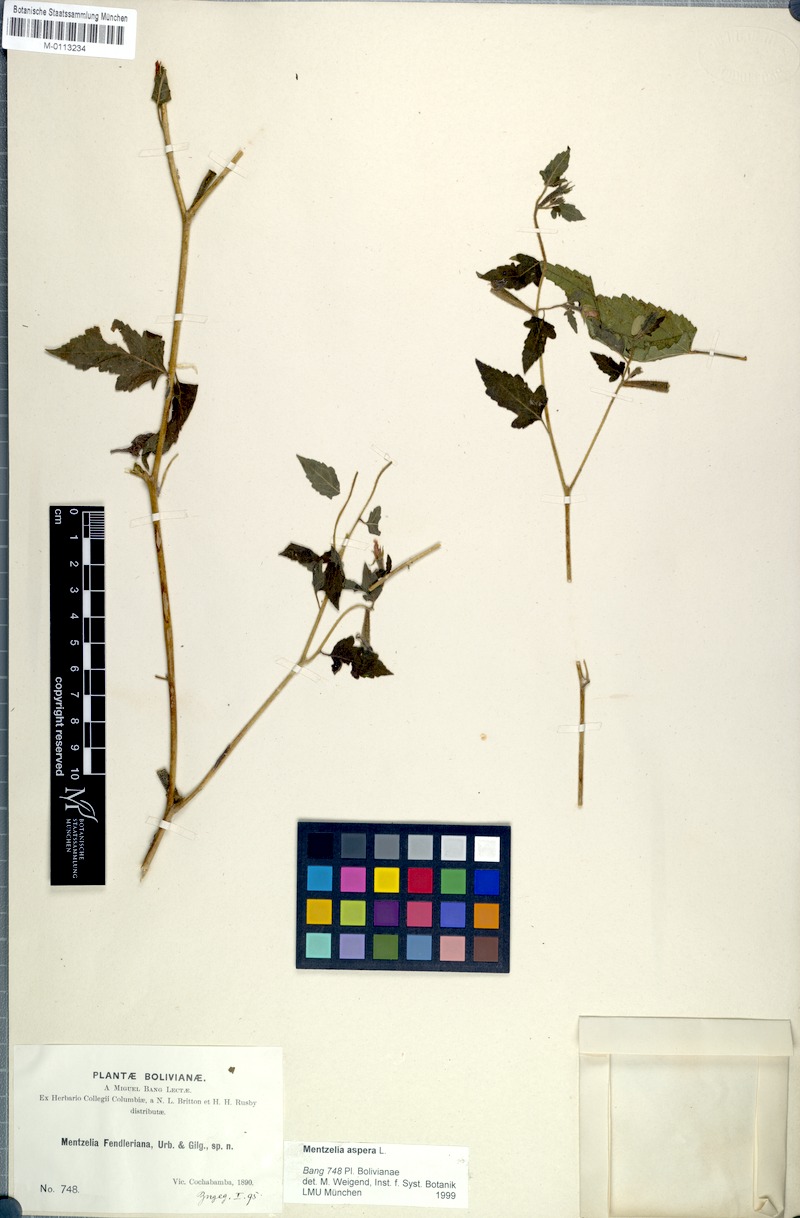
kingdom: Plantae
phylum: Tracheophyta
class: Magnoliopsida
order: Cornales
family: Loasaceae
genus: Mentzelia
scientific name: Mentzelia aspera
